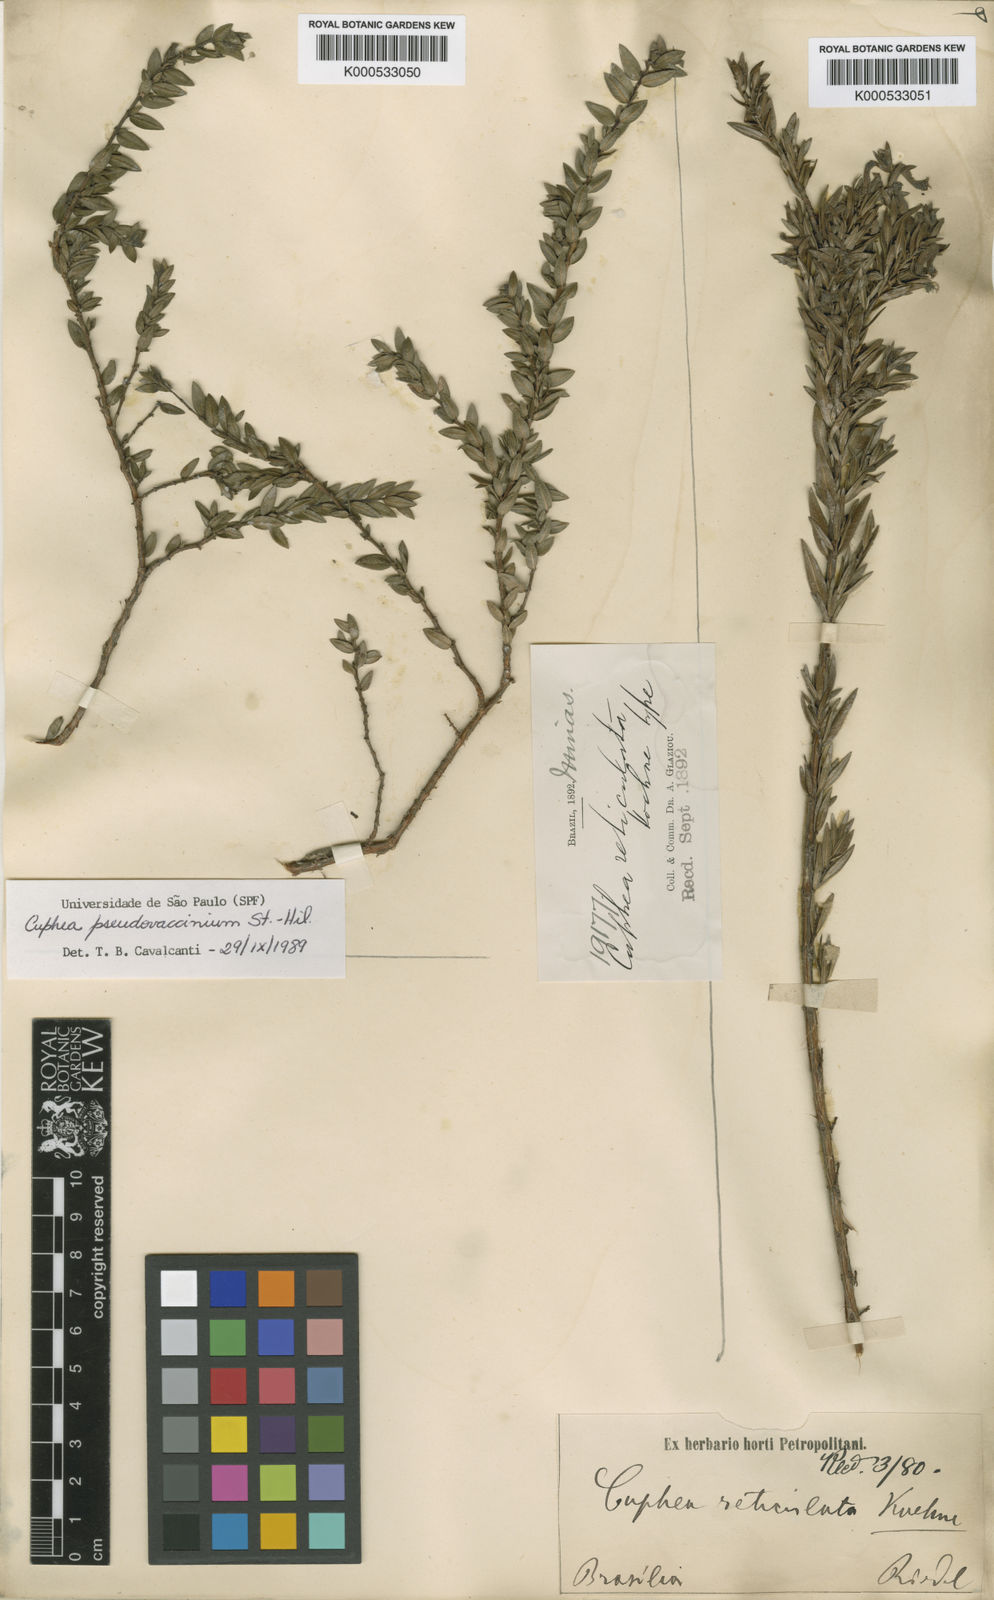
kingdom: Plantae
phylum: Tracheophyta
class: Magnoliopsida
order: Myrtales
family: Lythraceae
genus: Cuphea
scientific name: Cuphea pseudovaccinium
